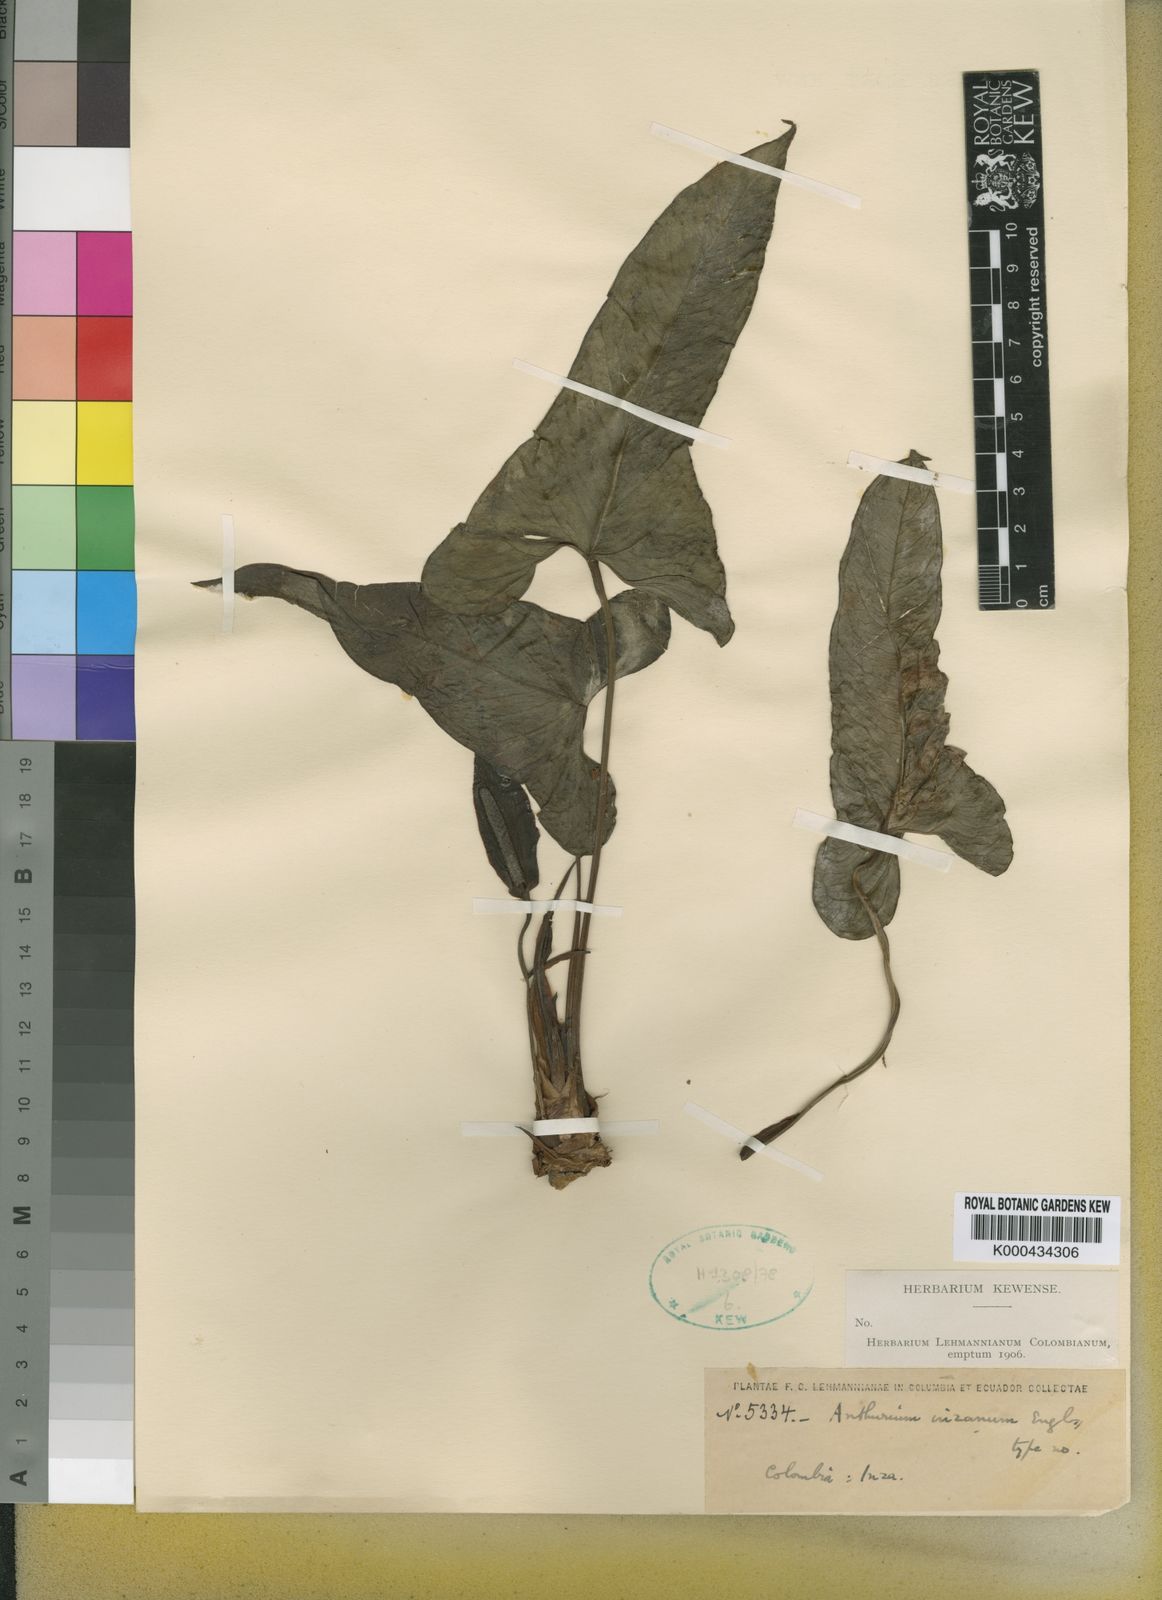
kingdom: Plantae
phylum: Tracheophyta
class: Liliopsida
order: Alismatales
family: Araceae
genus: Anthurium
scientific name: Anthurium inzanum
